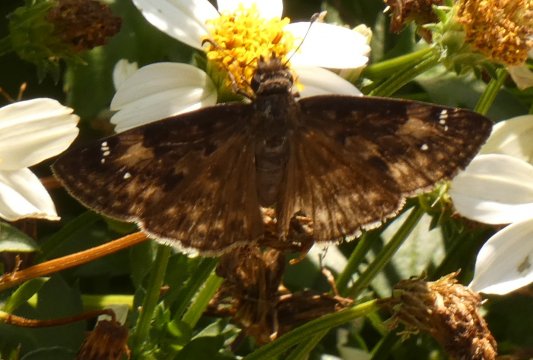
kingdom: Animalia
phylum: Arthropoda
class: Insecta
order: Lepidoptera
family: Hesperiidae
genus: Erynnis
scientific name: Erynnis zarucco
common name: Zarucco Duskywing
